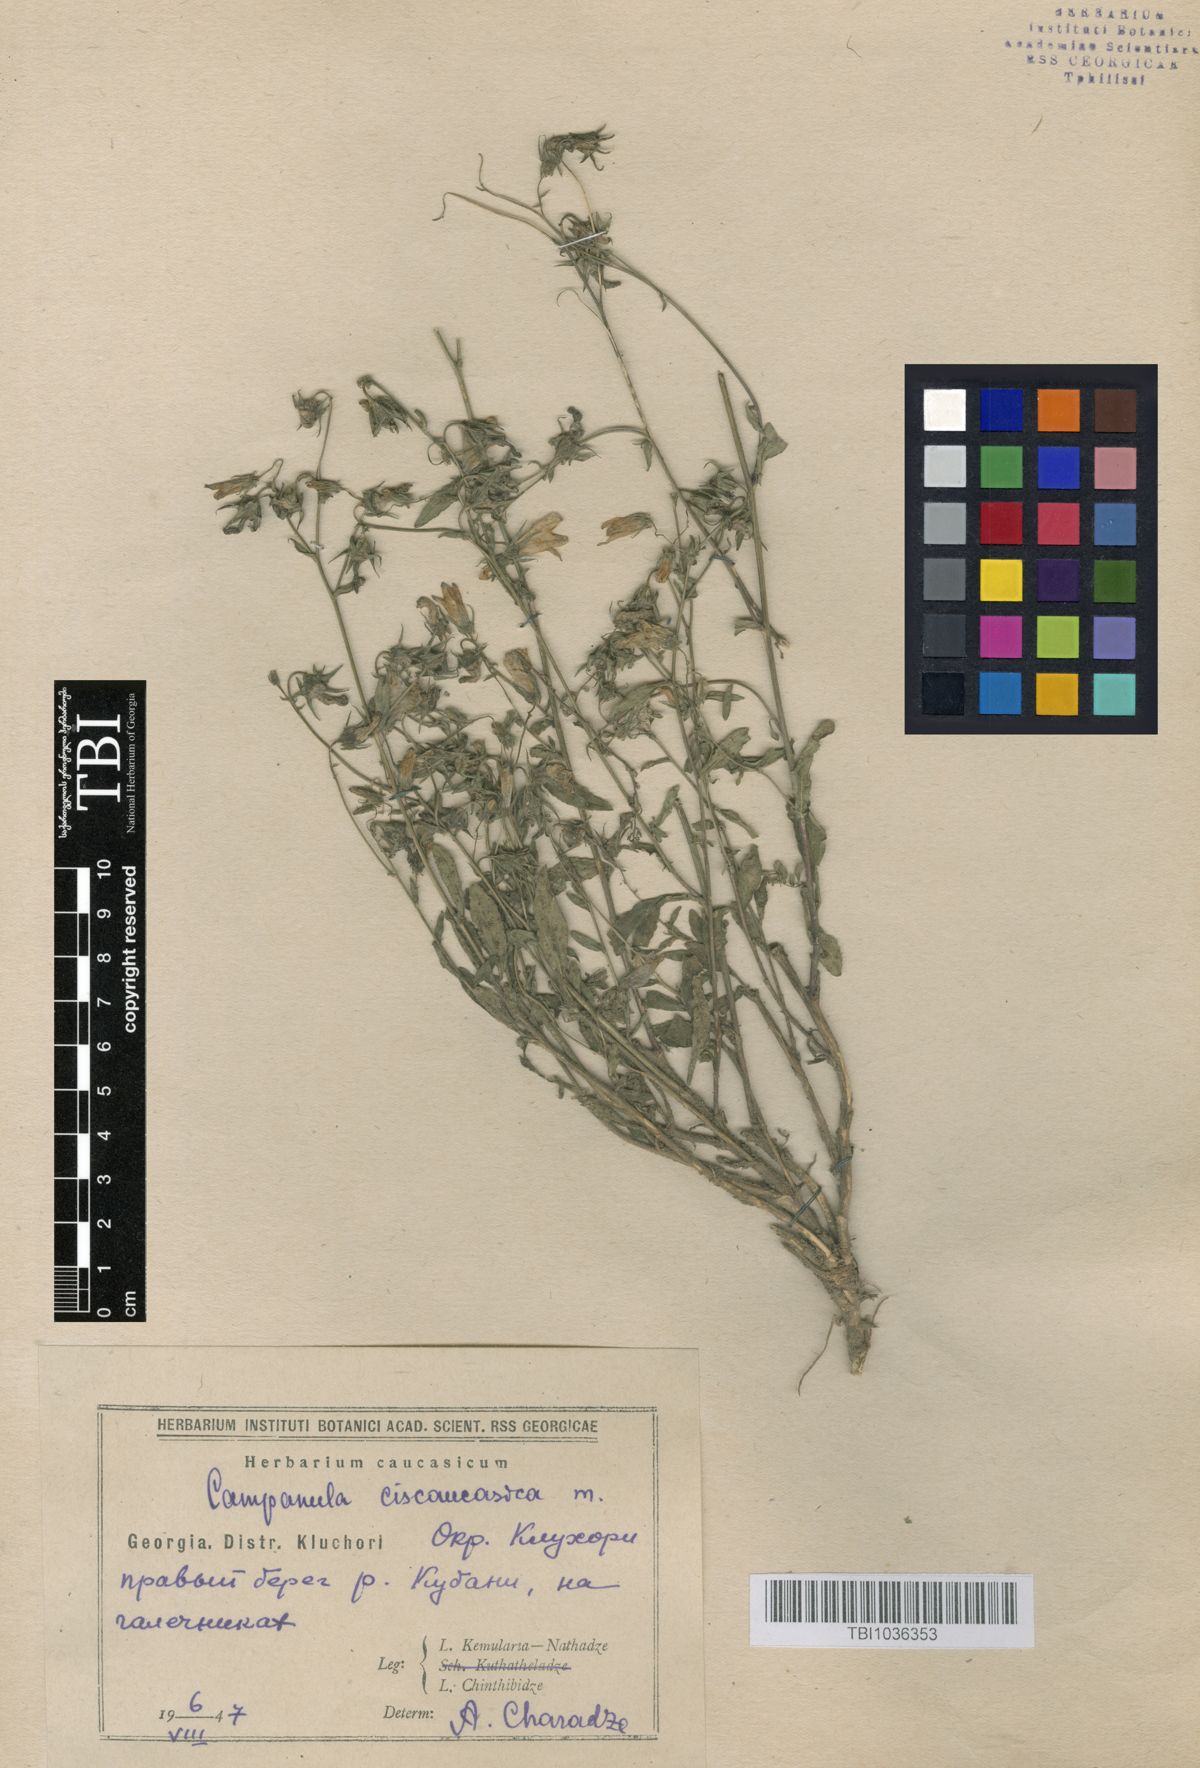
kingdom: Plantae
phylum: Tracheophyta
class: Magnoliopsida
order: Asterales
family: Campanulaceae
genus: Campanula
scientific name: Campanula sibirica
